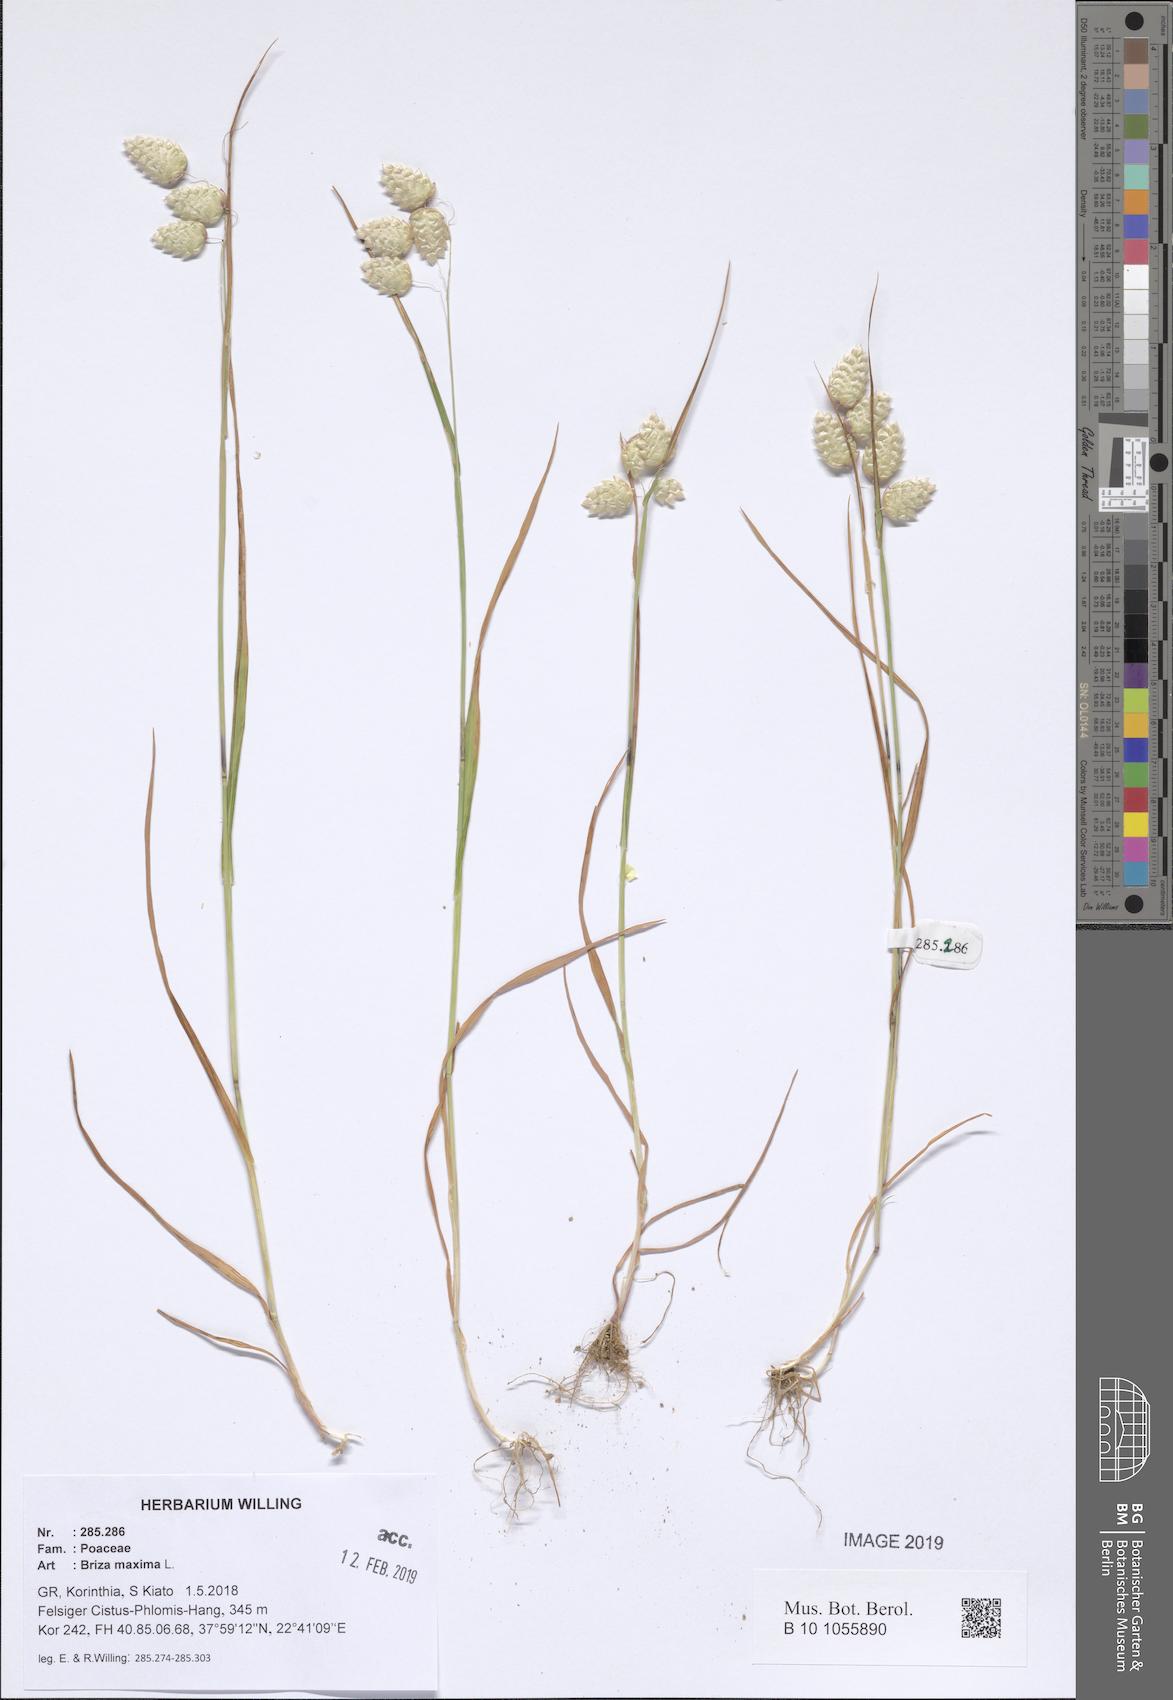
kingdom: Plantae
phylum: Tracheophyta
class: Liliopsida
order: Poales
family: Poaceae
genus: Briza
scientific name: Briza maxima
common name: Big quakinggrass
